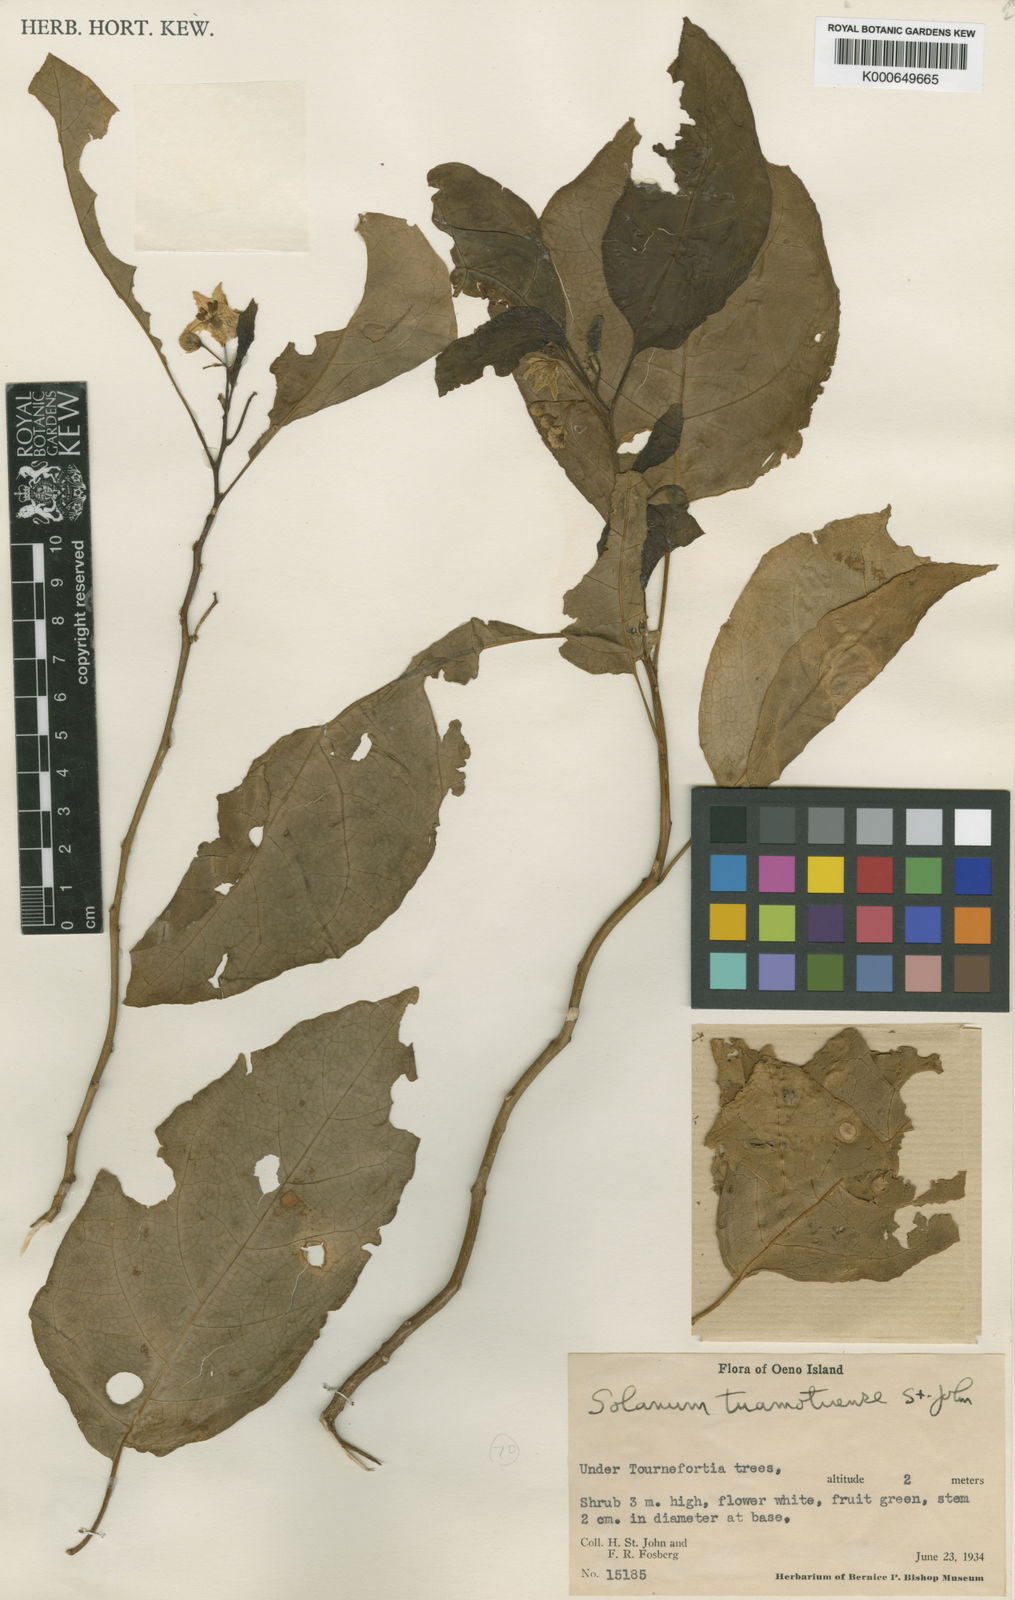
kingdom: Plantae
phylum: Tracheophyta
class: Magnoliopsida
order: Solanales
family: Solanaceae
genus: Solanum
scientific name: Solanum viride
